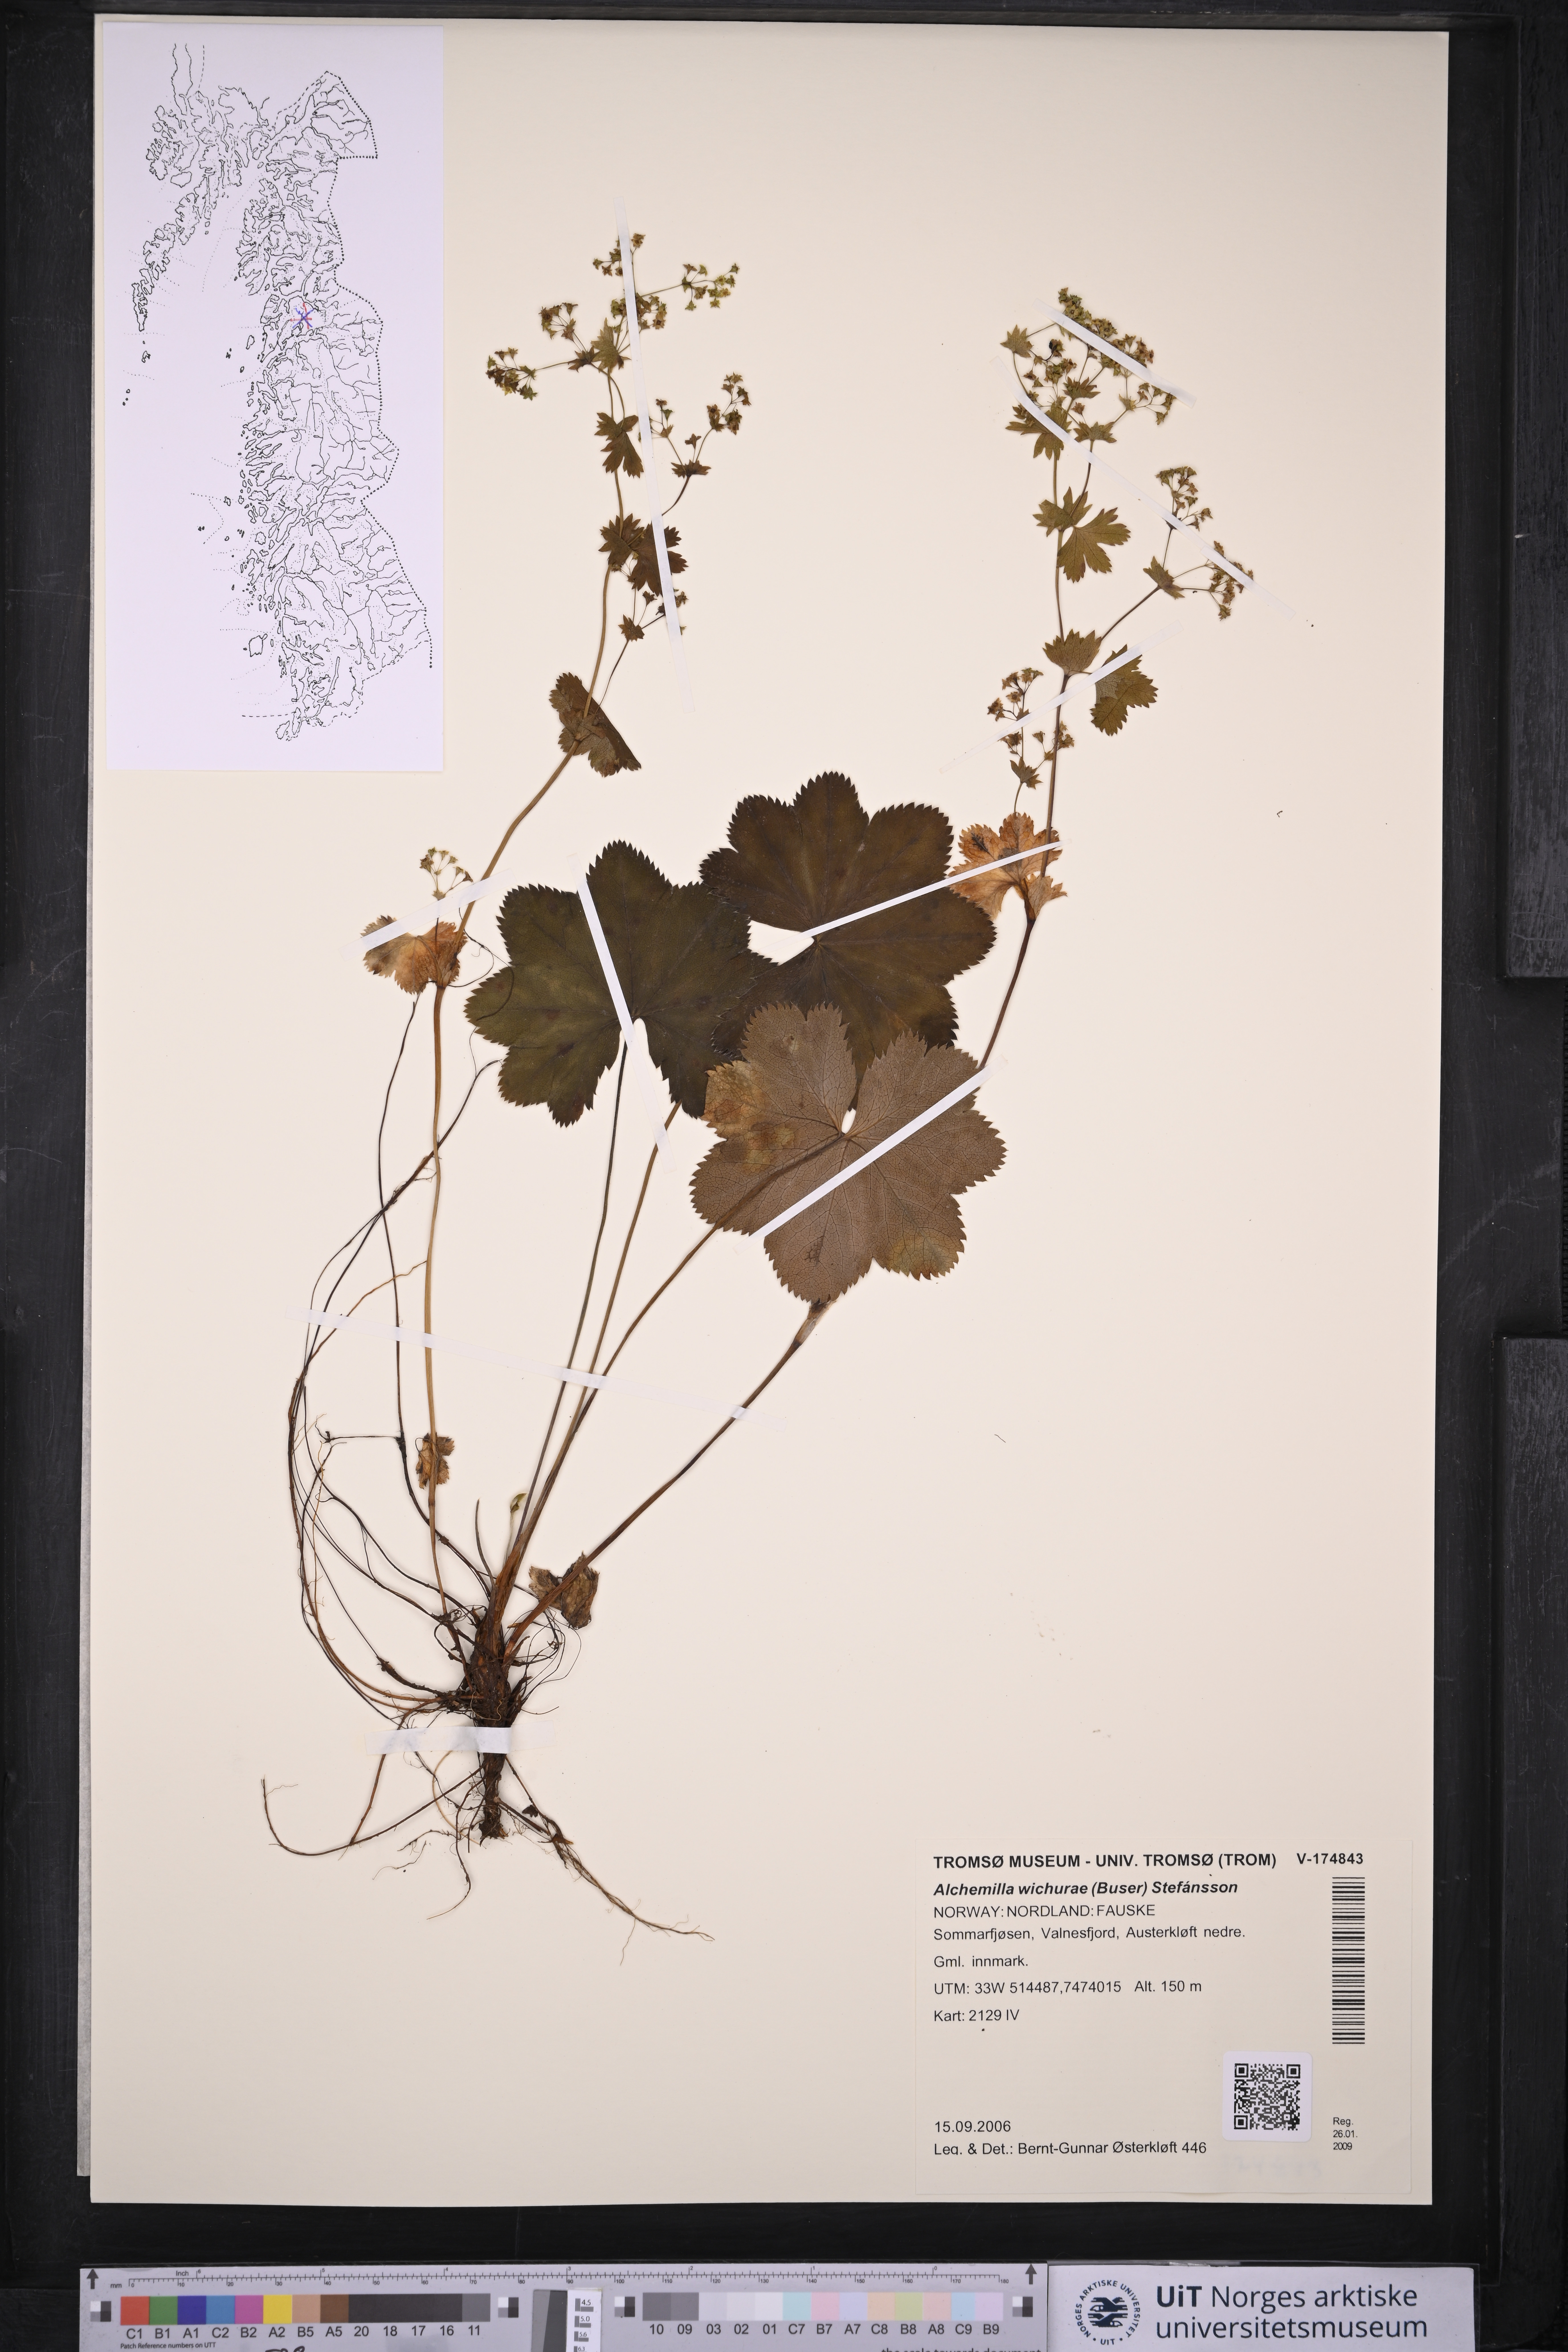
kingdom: Plantae
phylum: Tracheophyta
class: Magnoliopsida
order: Rosales
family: Rosaceae
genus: Alchemilla
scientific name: Alchemilla wichurae
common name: Rock lady's mantle
